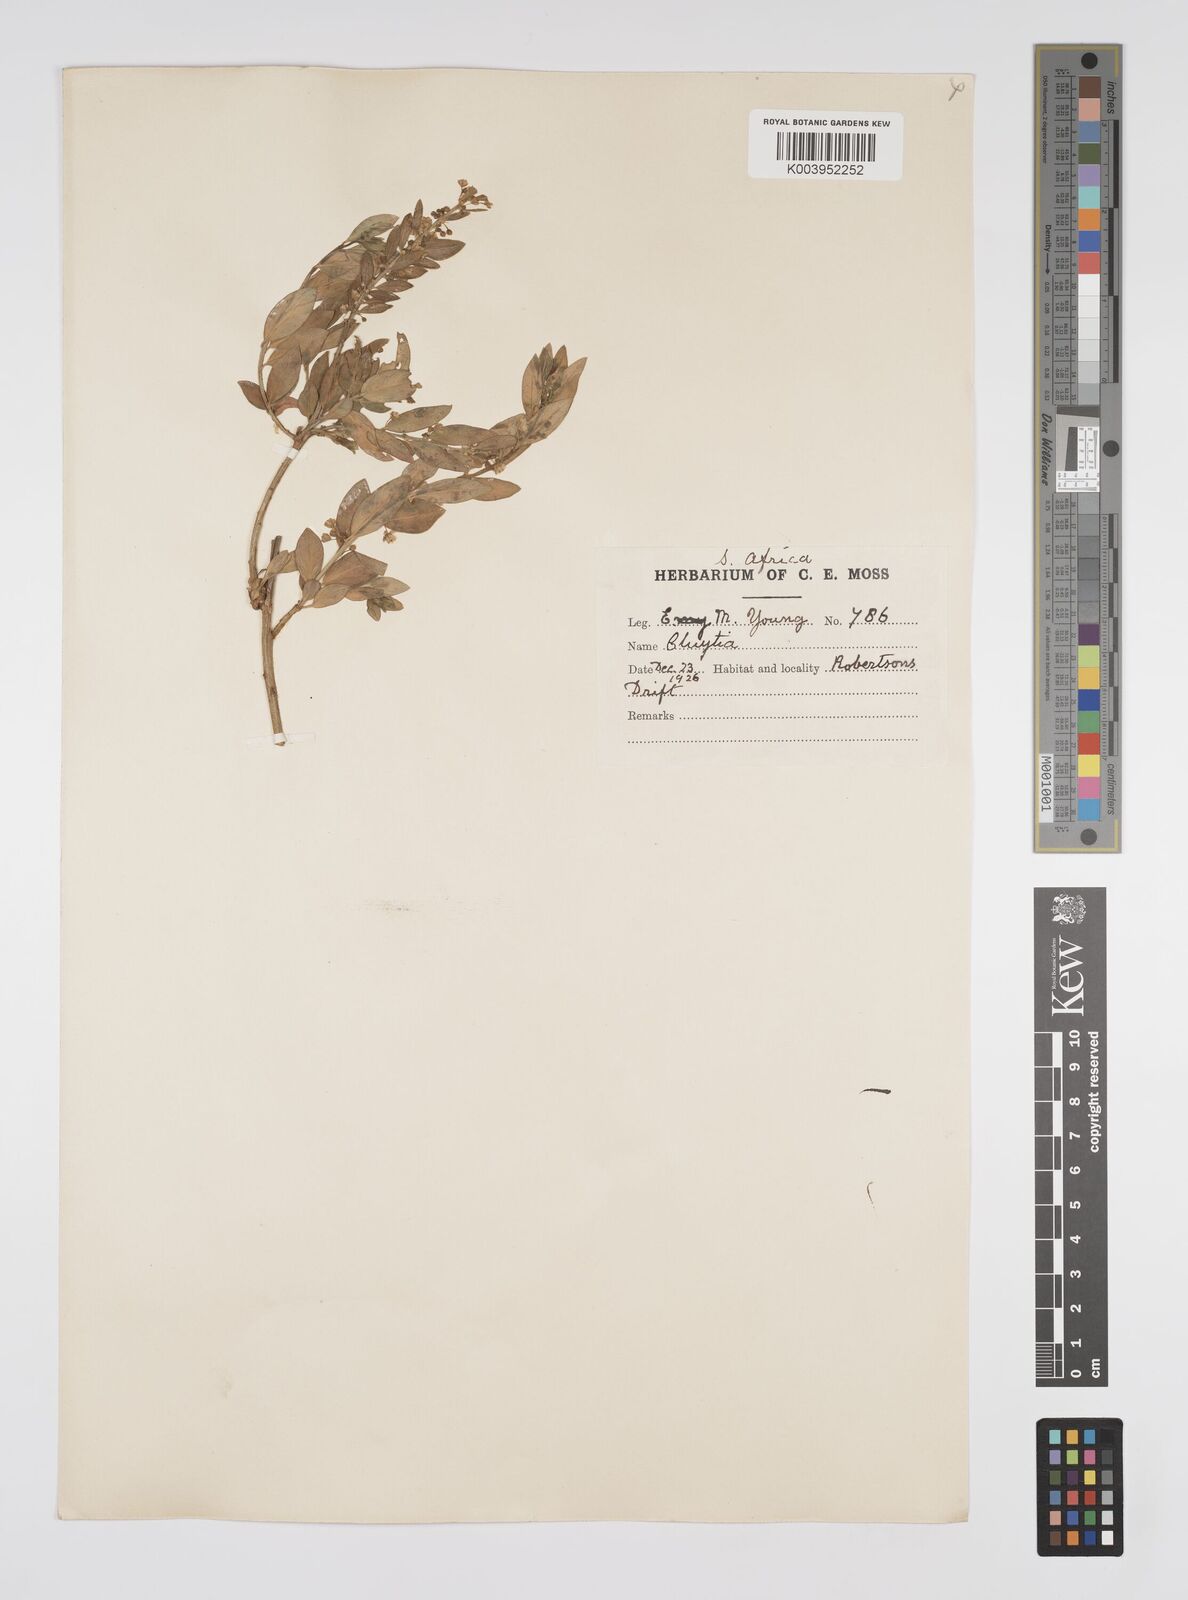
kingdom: Plantae
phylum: Tracheophyta
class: Magnoliopsida
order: Malpighiales
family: Peraceae
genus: Clutia
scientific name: Clutia affinis
